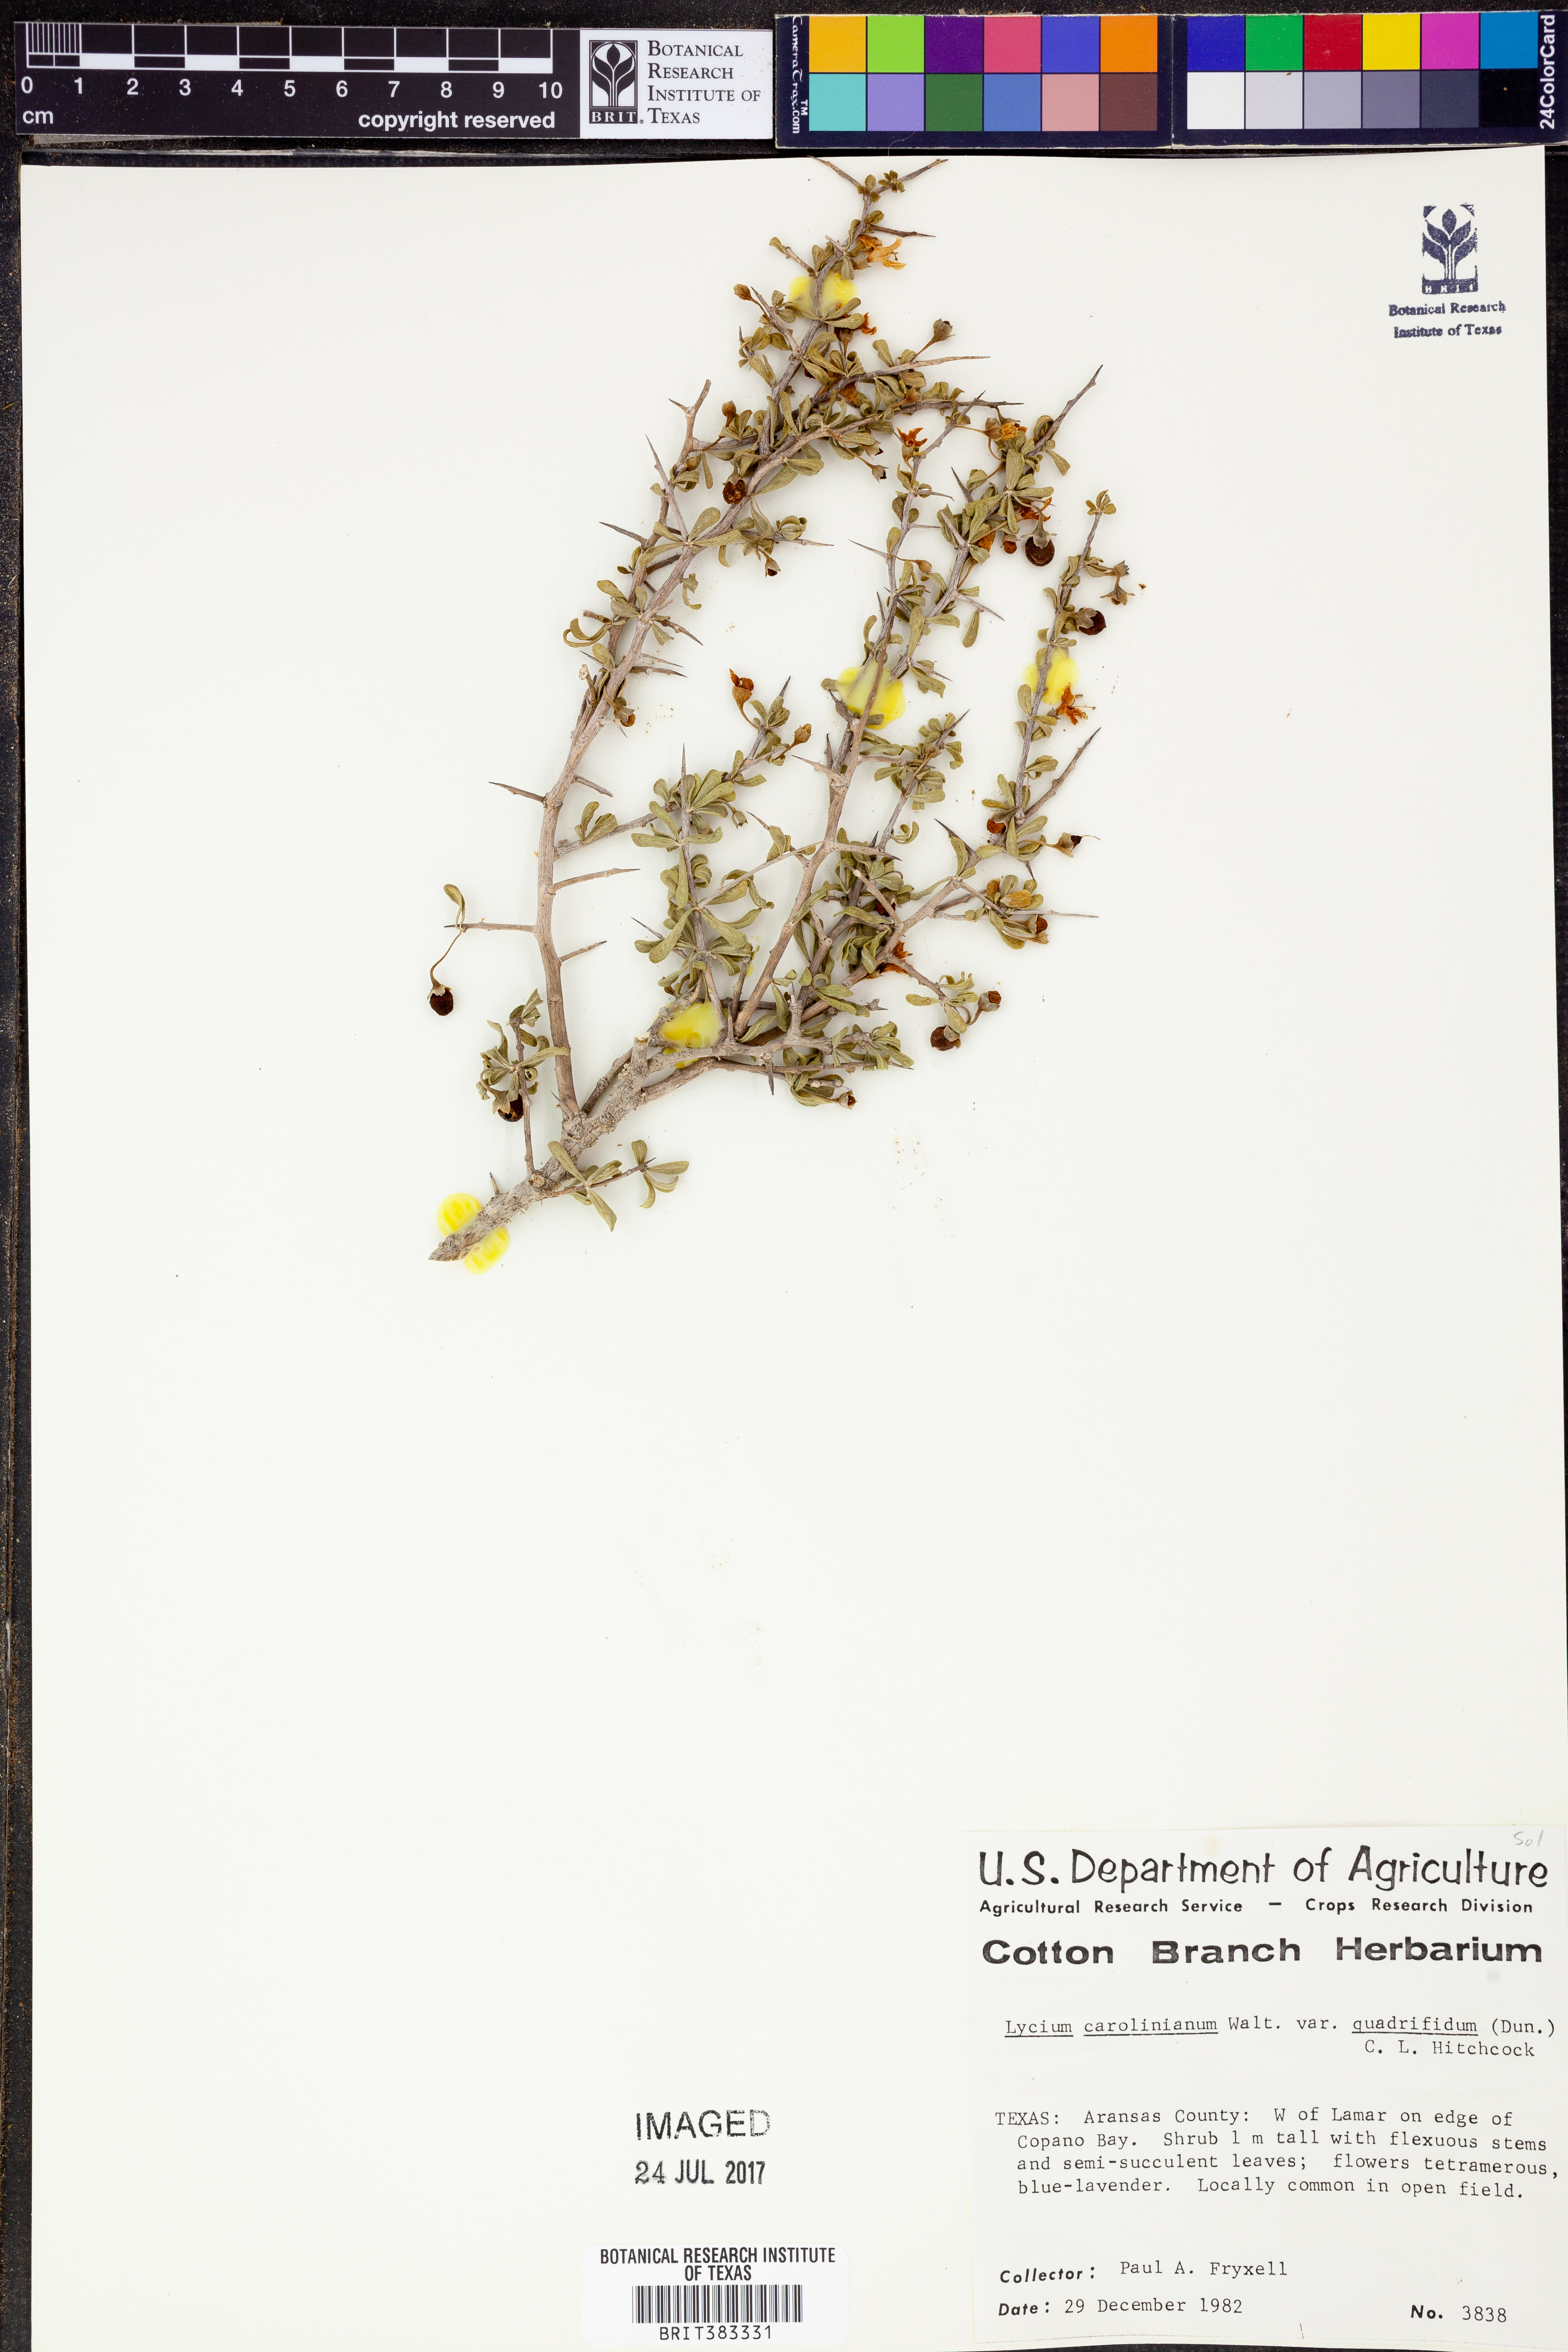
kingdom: Plantae
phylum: Tracheophyta
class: Magnoliopsida
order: Solanales
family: Solanaceae
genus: Lycium
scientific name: Lycium carolinianum
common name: Christmasberry
